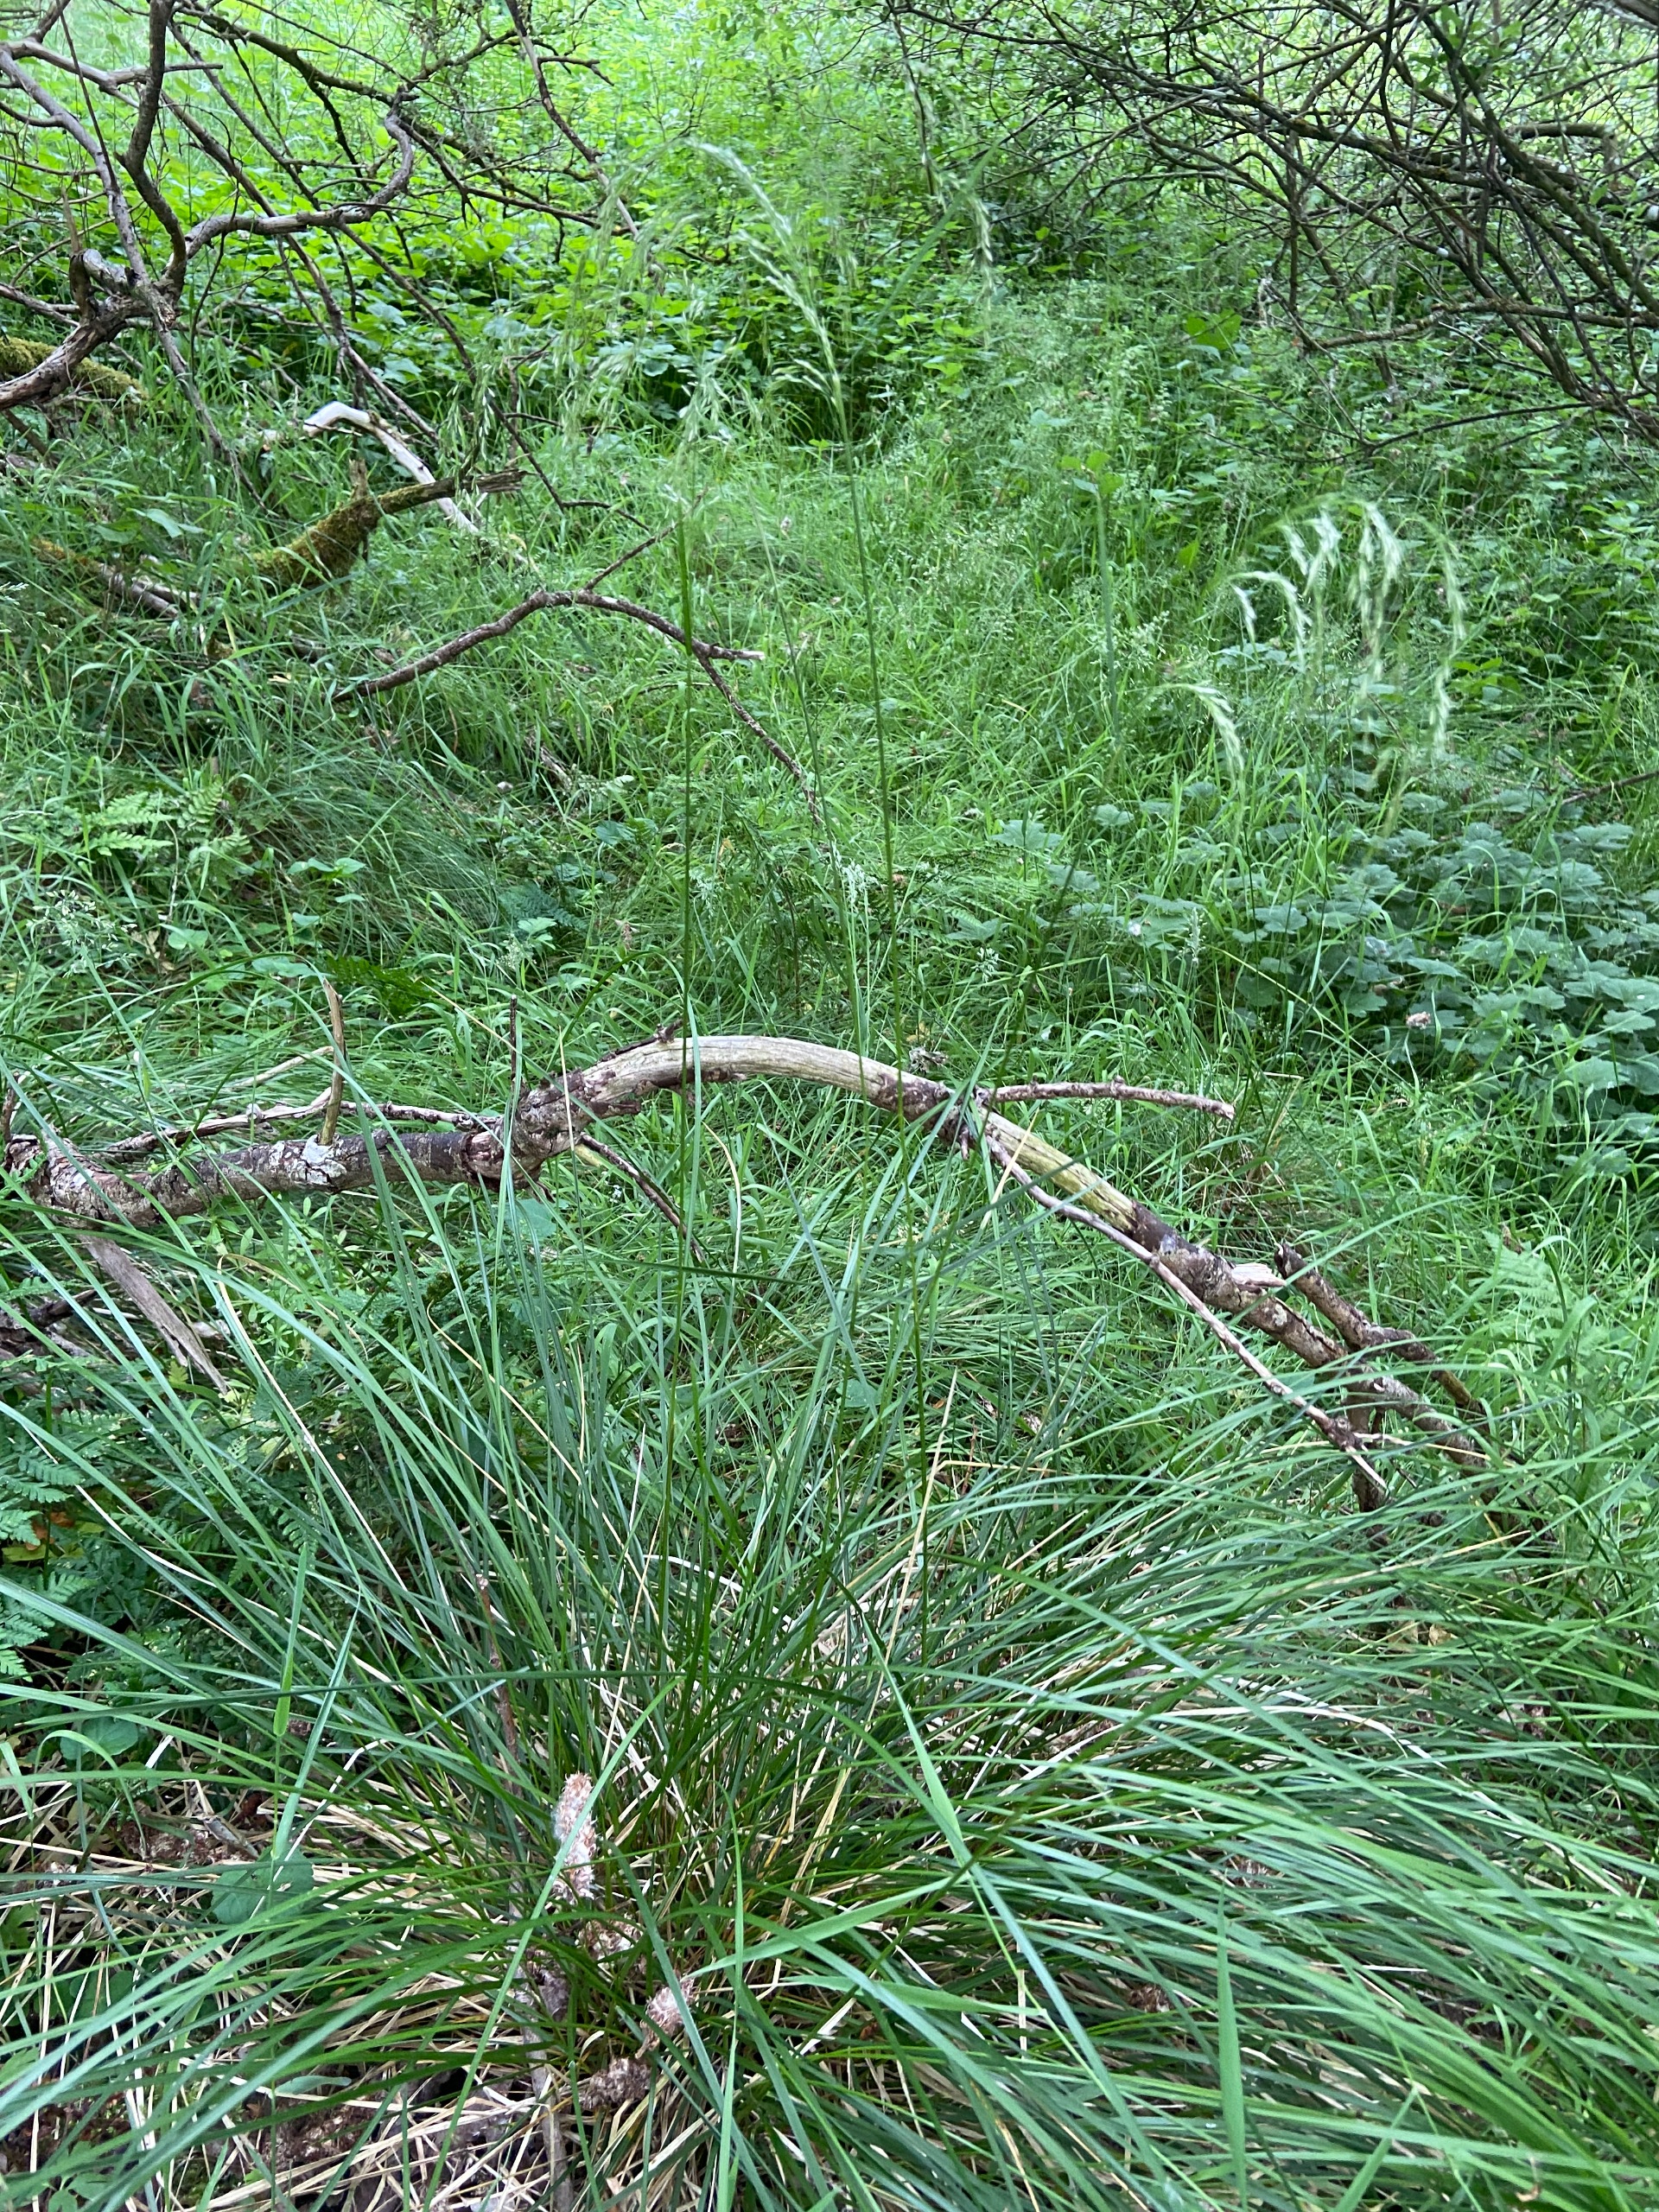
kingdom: Plantae
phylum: Tracheophyta
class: Liliopsida
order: Poales
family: Poaceae
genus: Deschampsia
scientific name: Deschampsia cespitosa
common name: Mose-bunke
